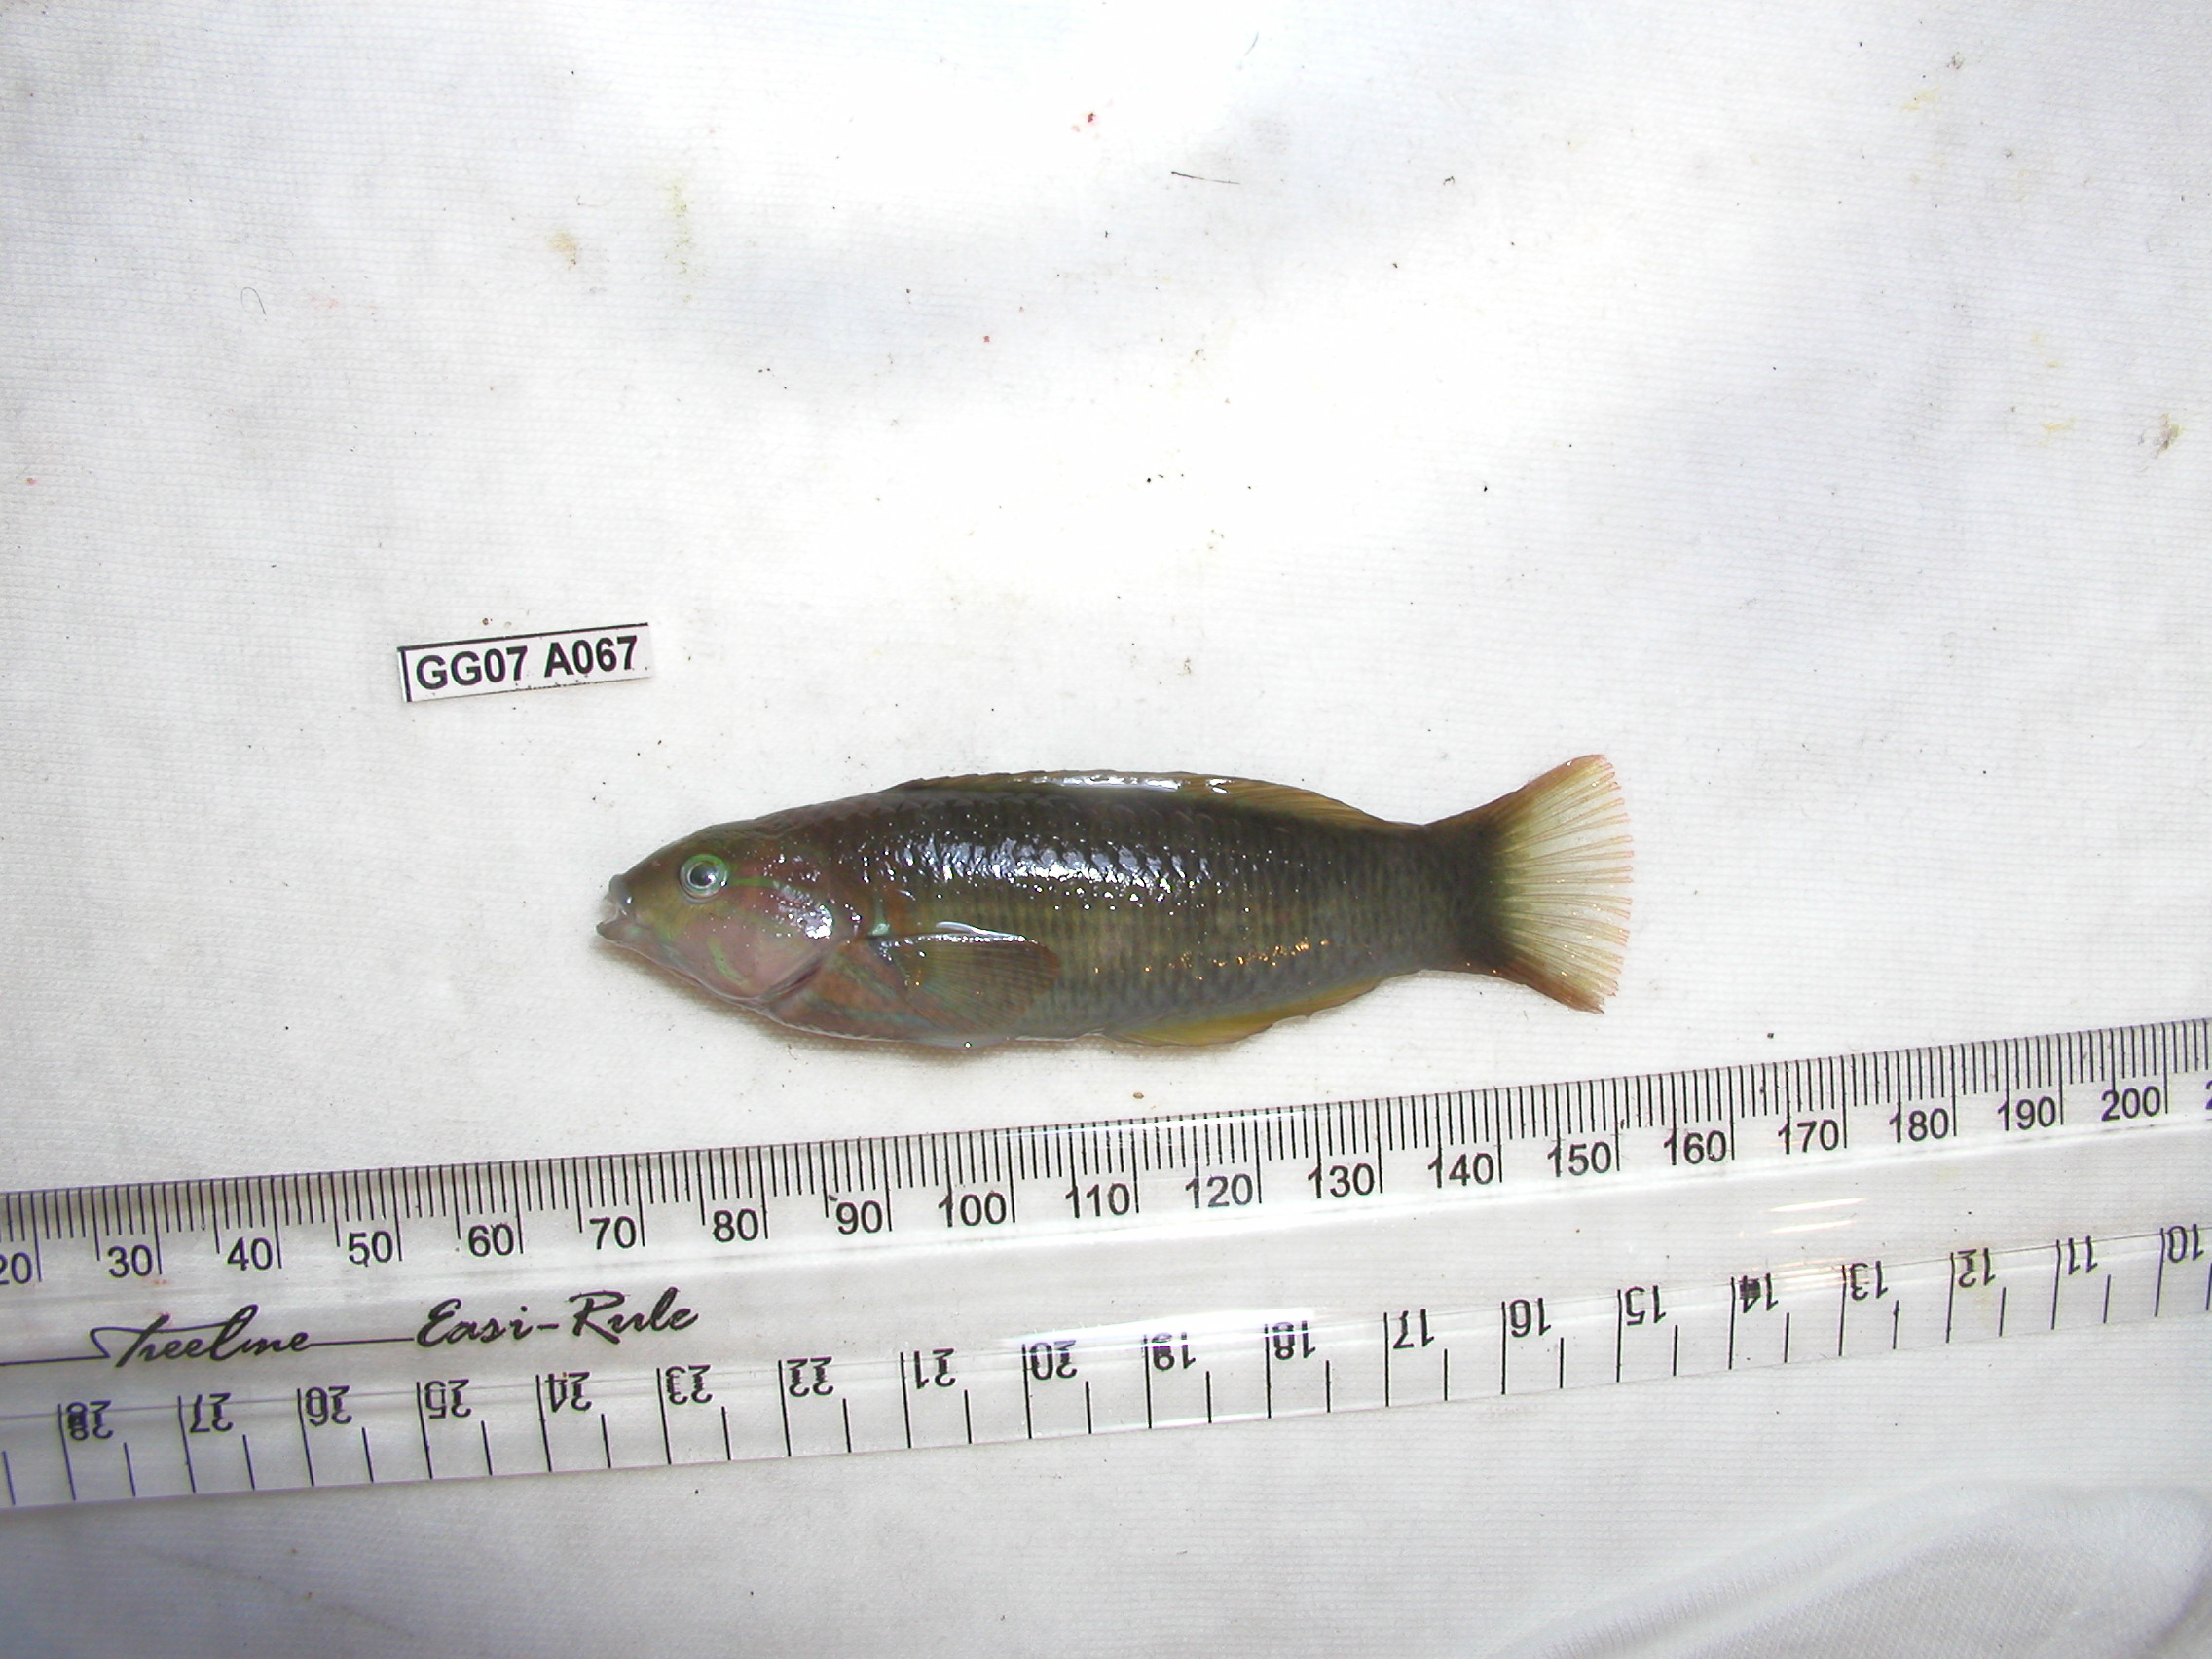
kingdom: Animalia
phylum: Chordata
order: Perciformes
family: Labridae
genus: Thalassoma
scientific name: Thalassoma hebraicum
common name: Goldbar wrasse
